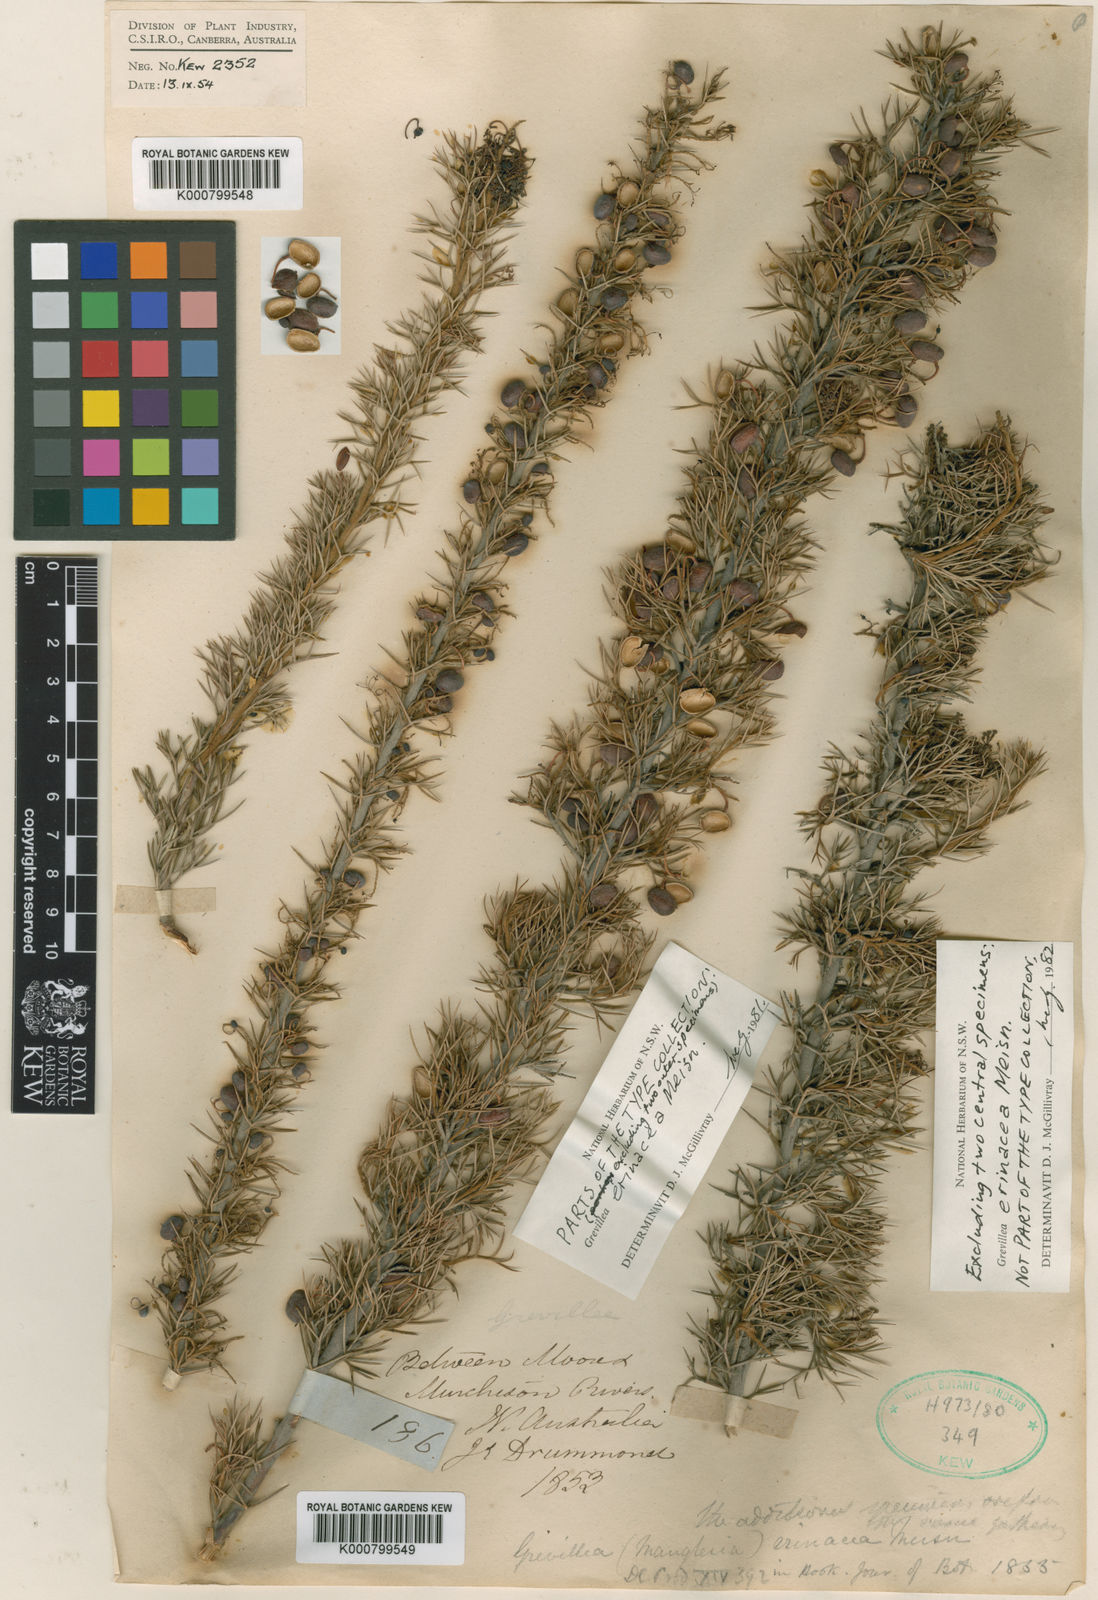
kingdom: Plantae
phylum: Tracheophyta
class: Magnoliopsida
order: Proteales
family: Proteaceae
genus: Grevillea
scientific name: Grevillea erinacea
